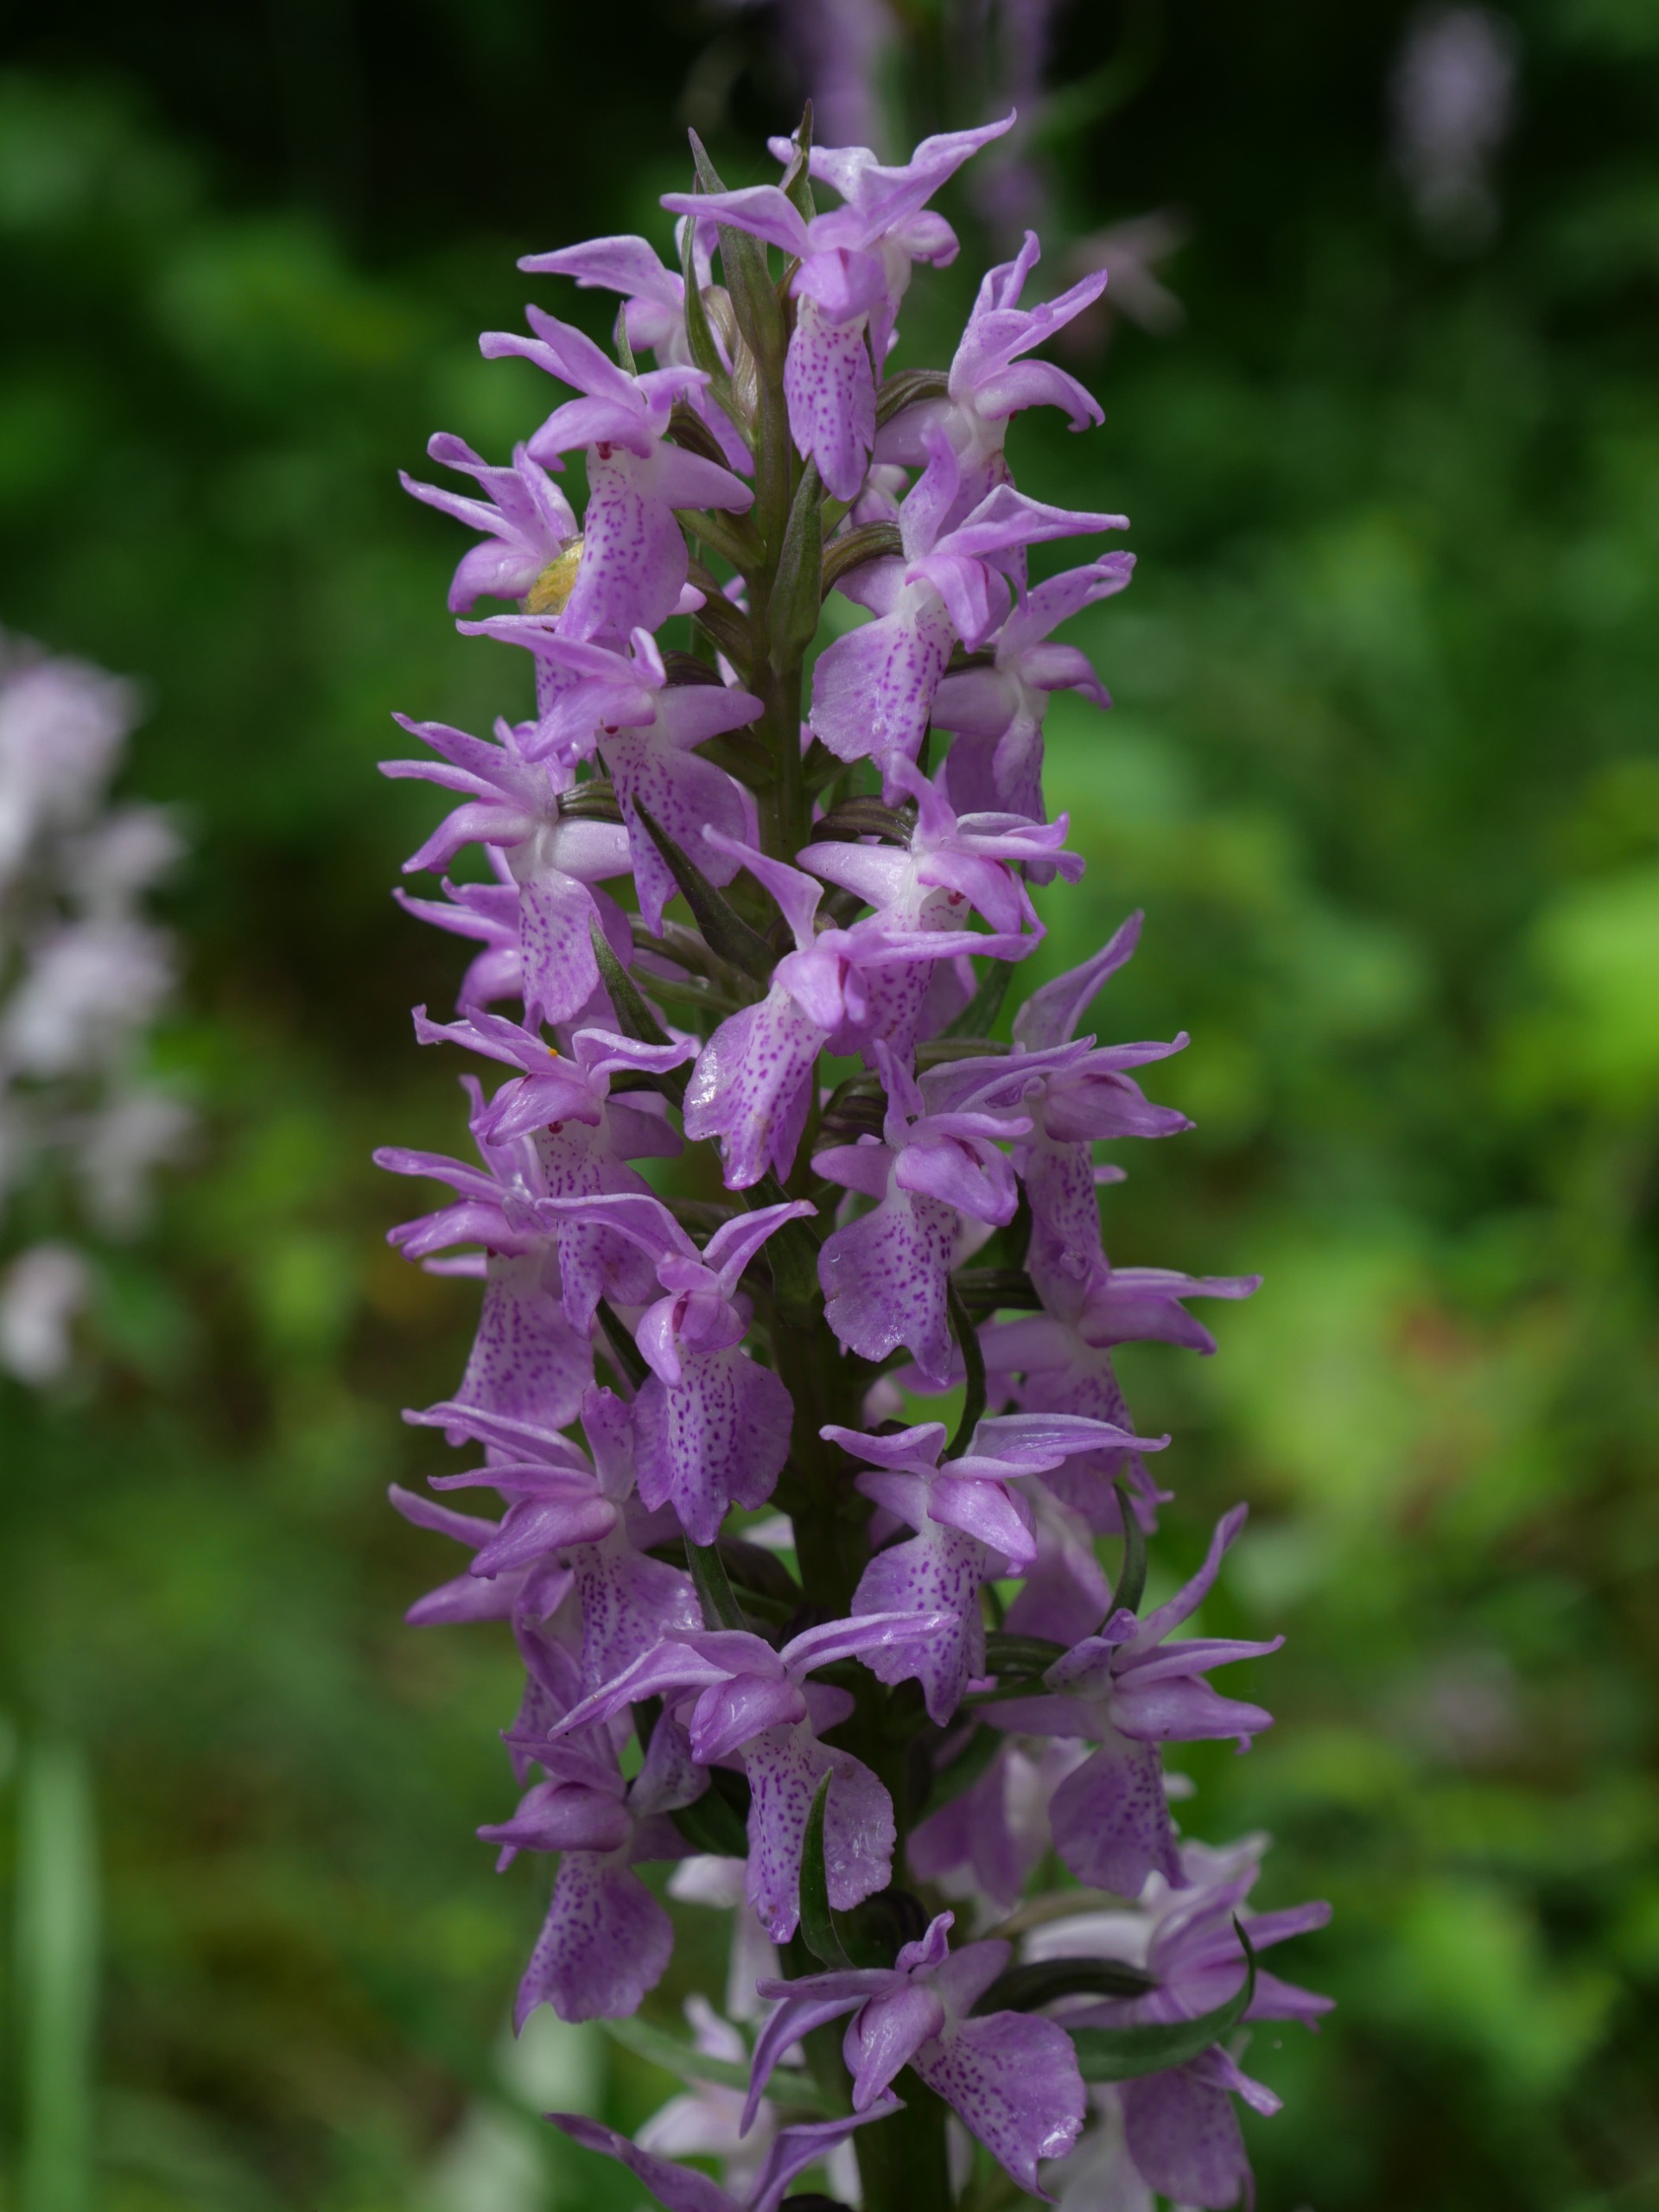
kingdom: Plantae
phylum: Tracheophyta
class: Liliopsida
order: Asparagales
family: Orchidaceae
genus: Dactylorhiza
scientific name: Dactylorhiza majalis
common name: Priklæbet gøgeurt
